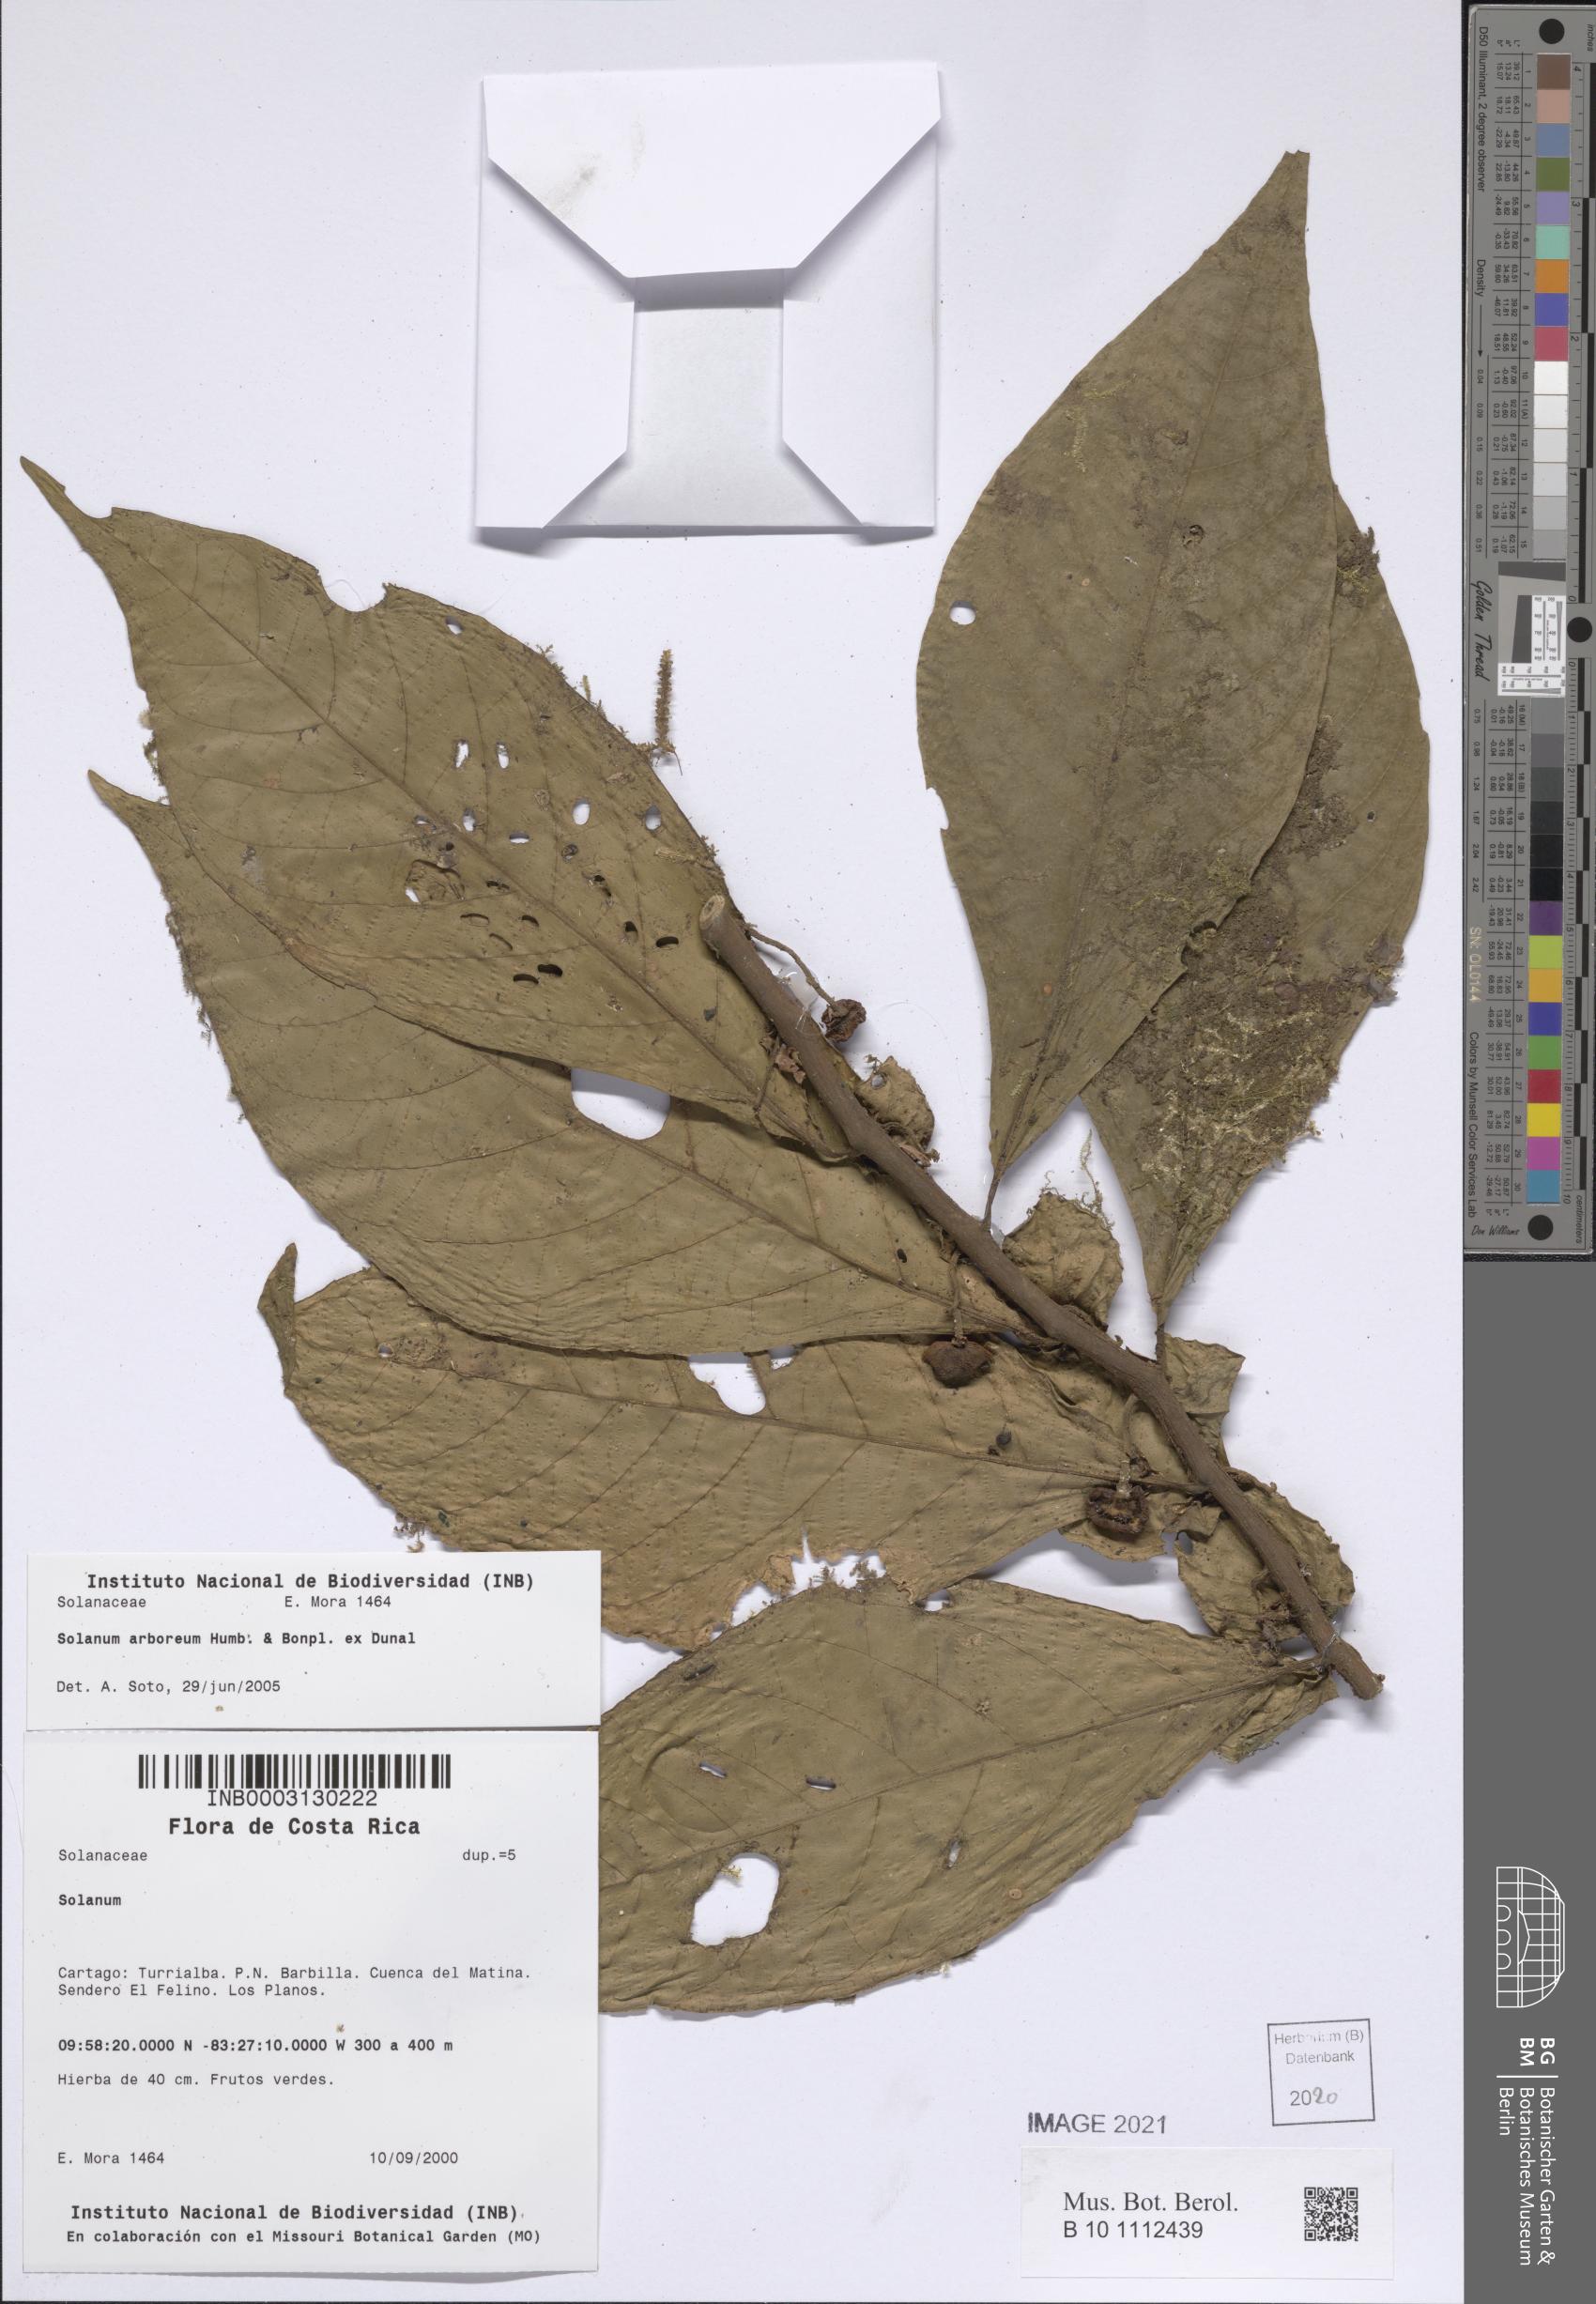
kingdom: Plantae
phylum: Tracheophyta
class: Magnoliopsida
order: Solanales
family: Solanaceae
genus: Solanum
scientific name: Solanum arboreum
